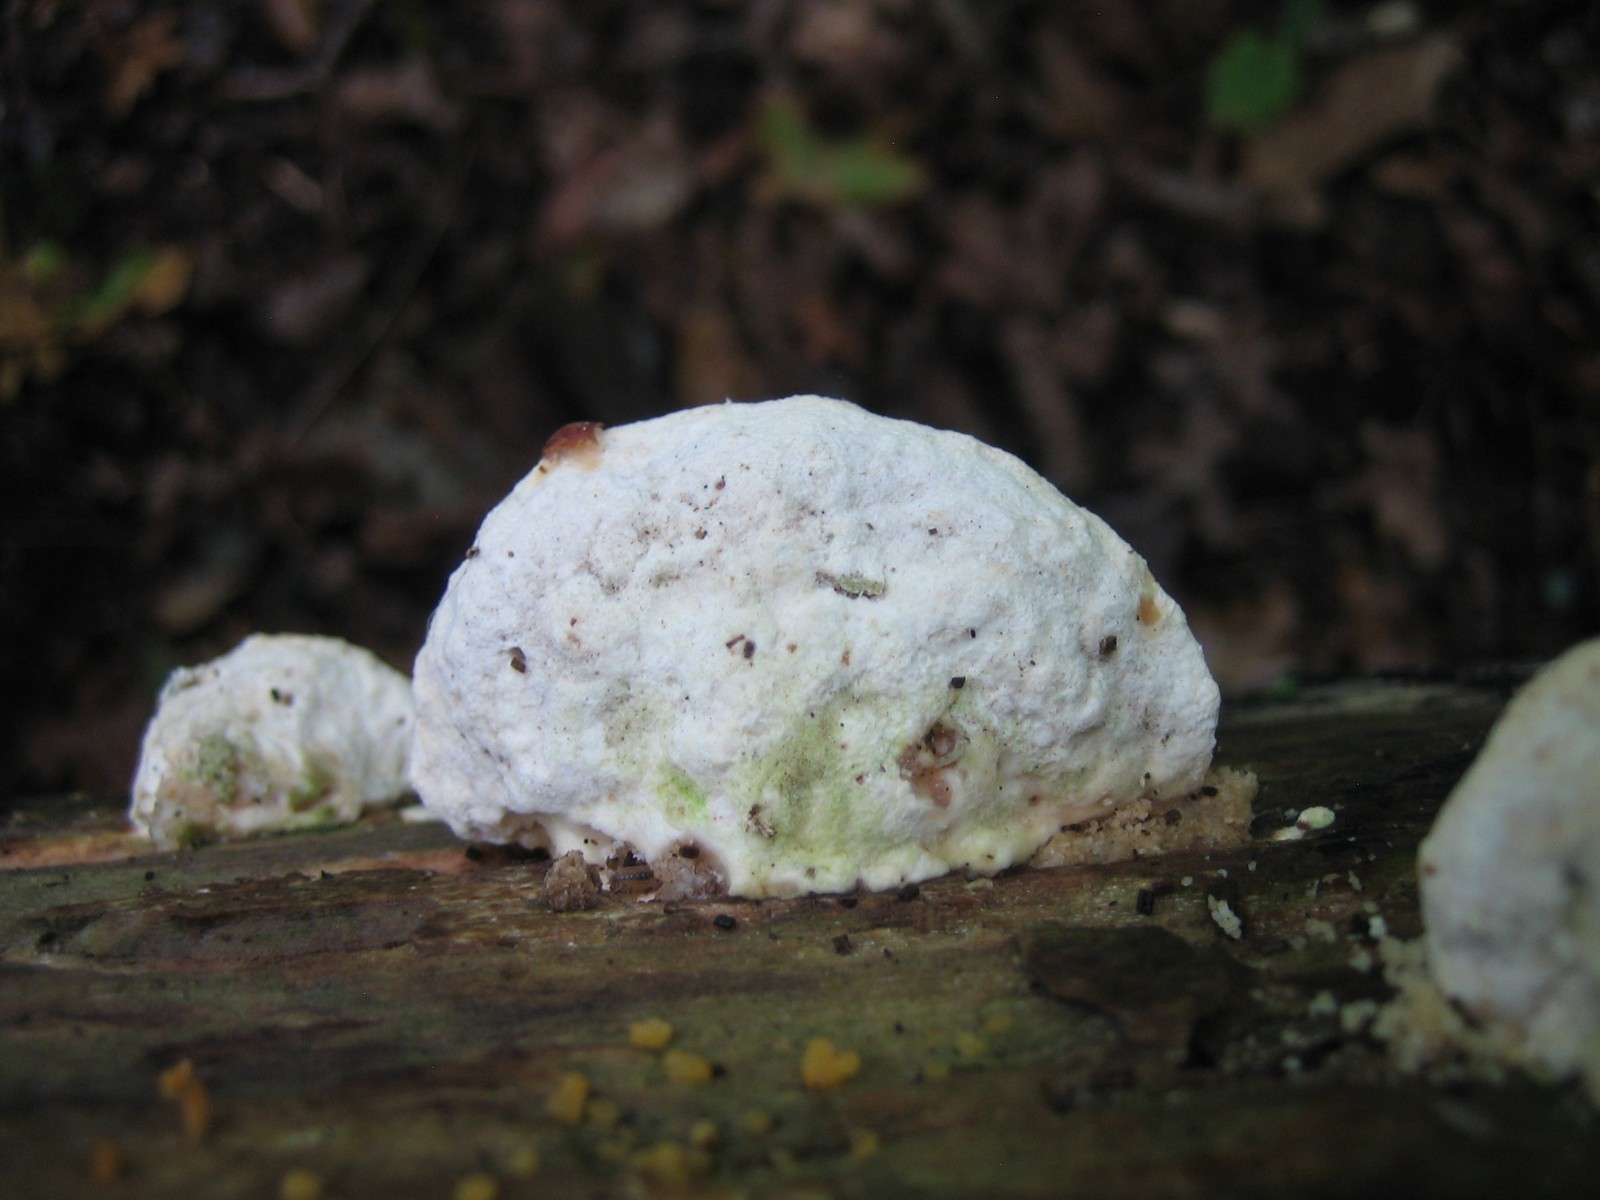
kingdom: Fungi
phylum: Basidiomycota
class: Agaricomycetes
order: Polyporales
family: Polyporaceae
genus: Trametes
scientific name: Trametes gibbosa
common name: puklet læderporesvamp
